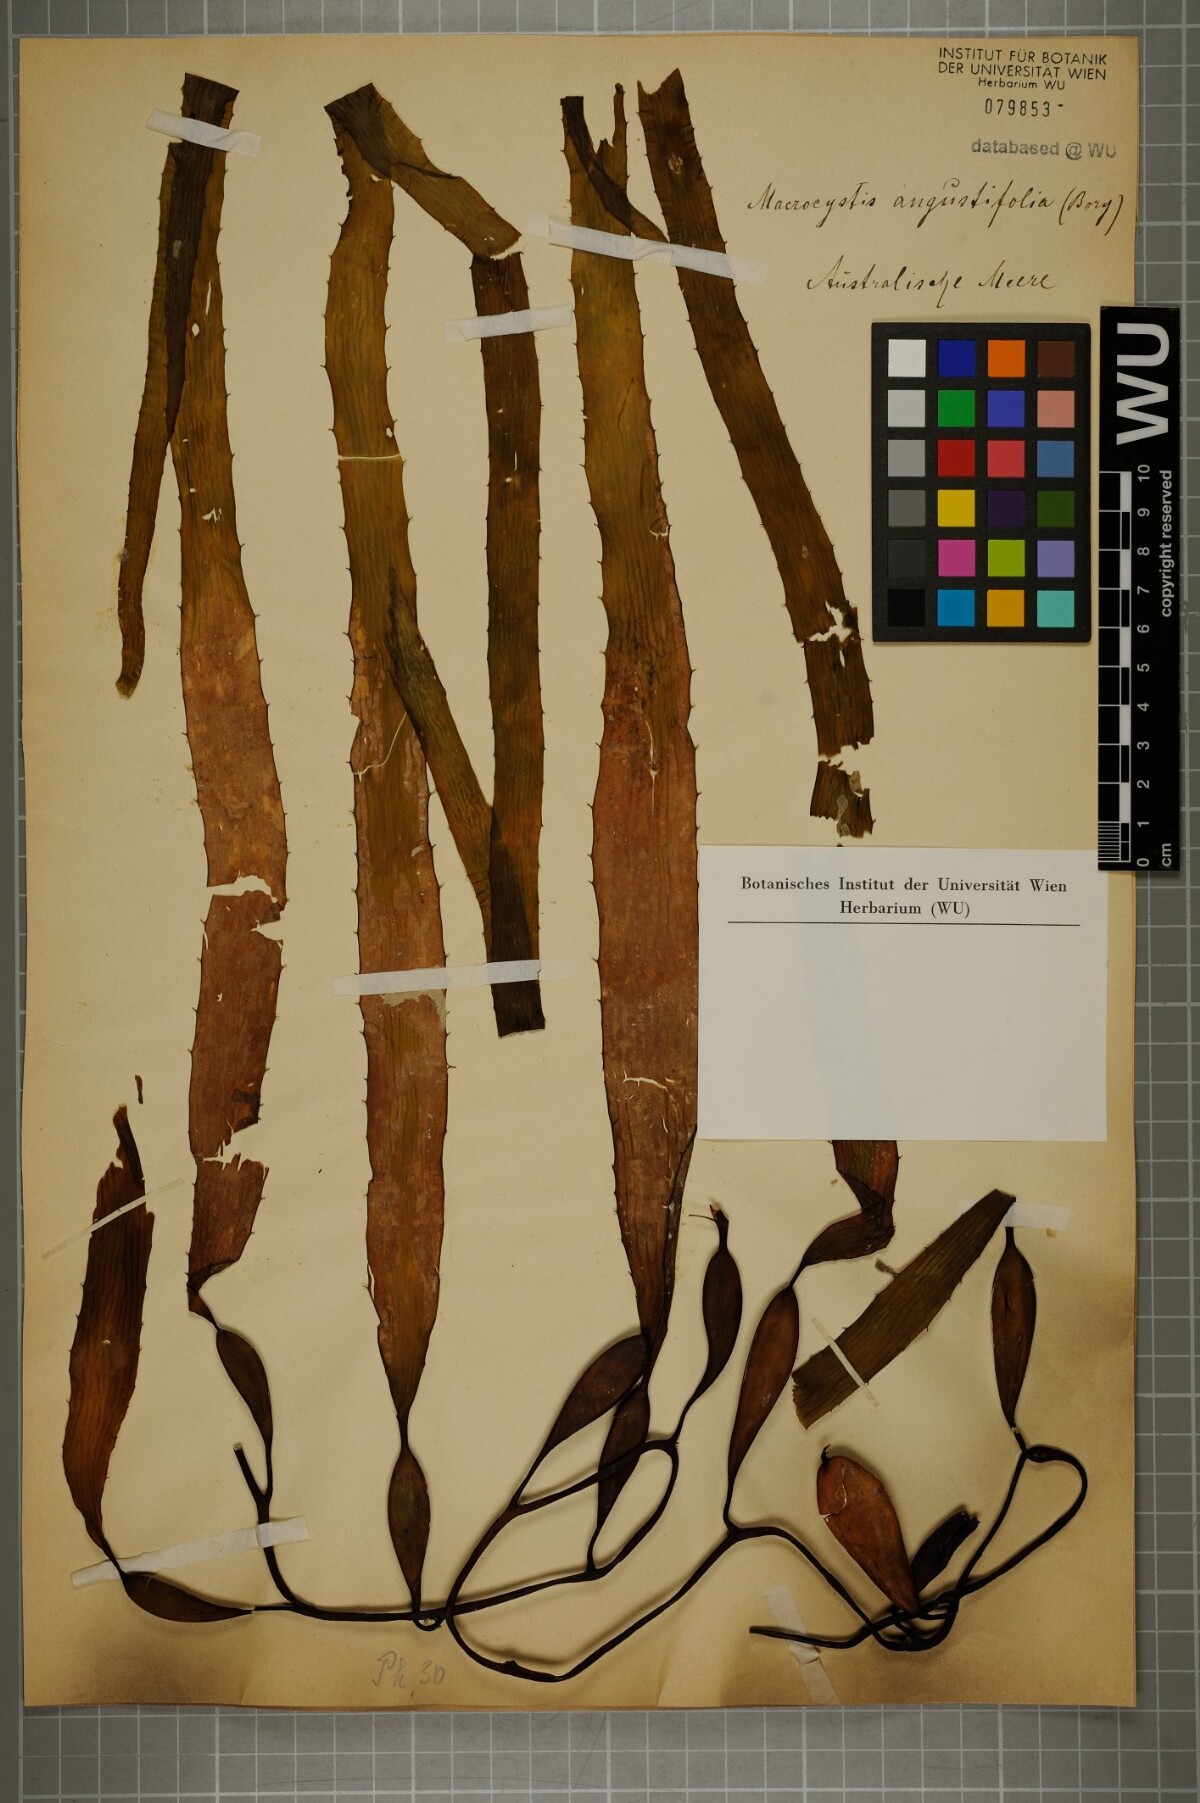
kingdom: Chromista
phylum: Ochrophyta
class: Phaeophyceae
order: Laminariales
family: Laminariaceae
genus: Macrocystis
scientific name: Macrocystis angustifolia
